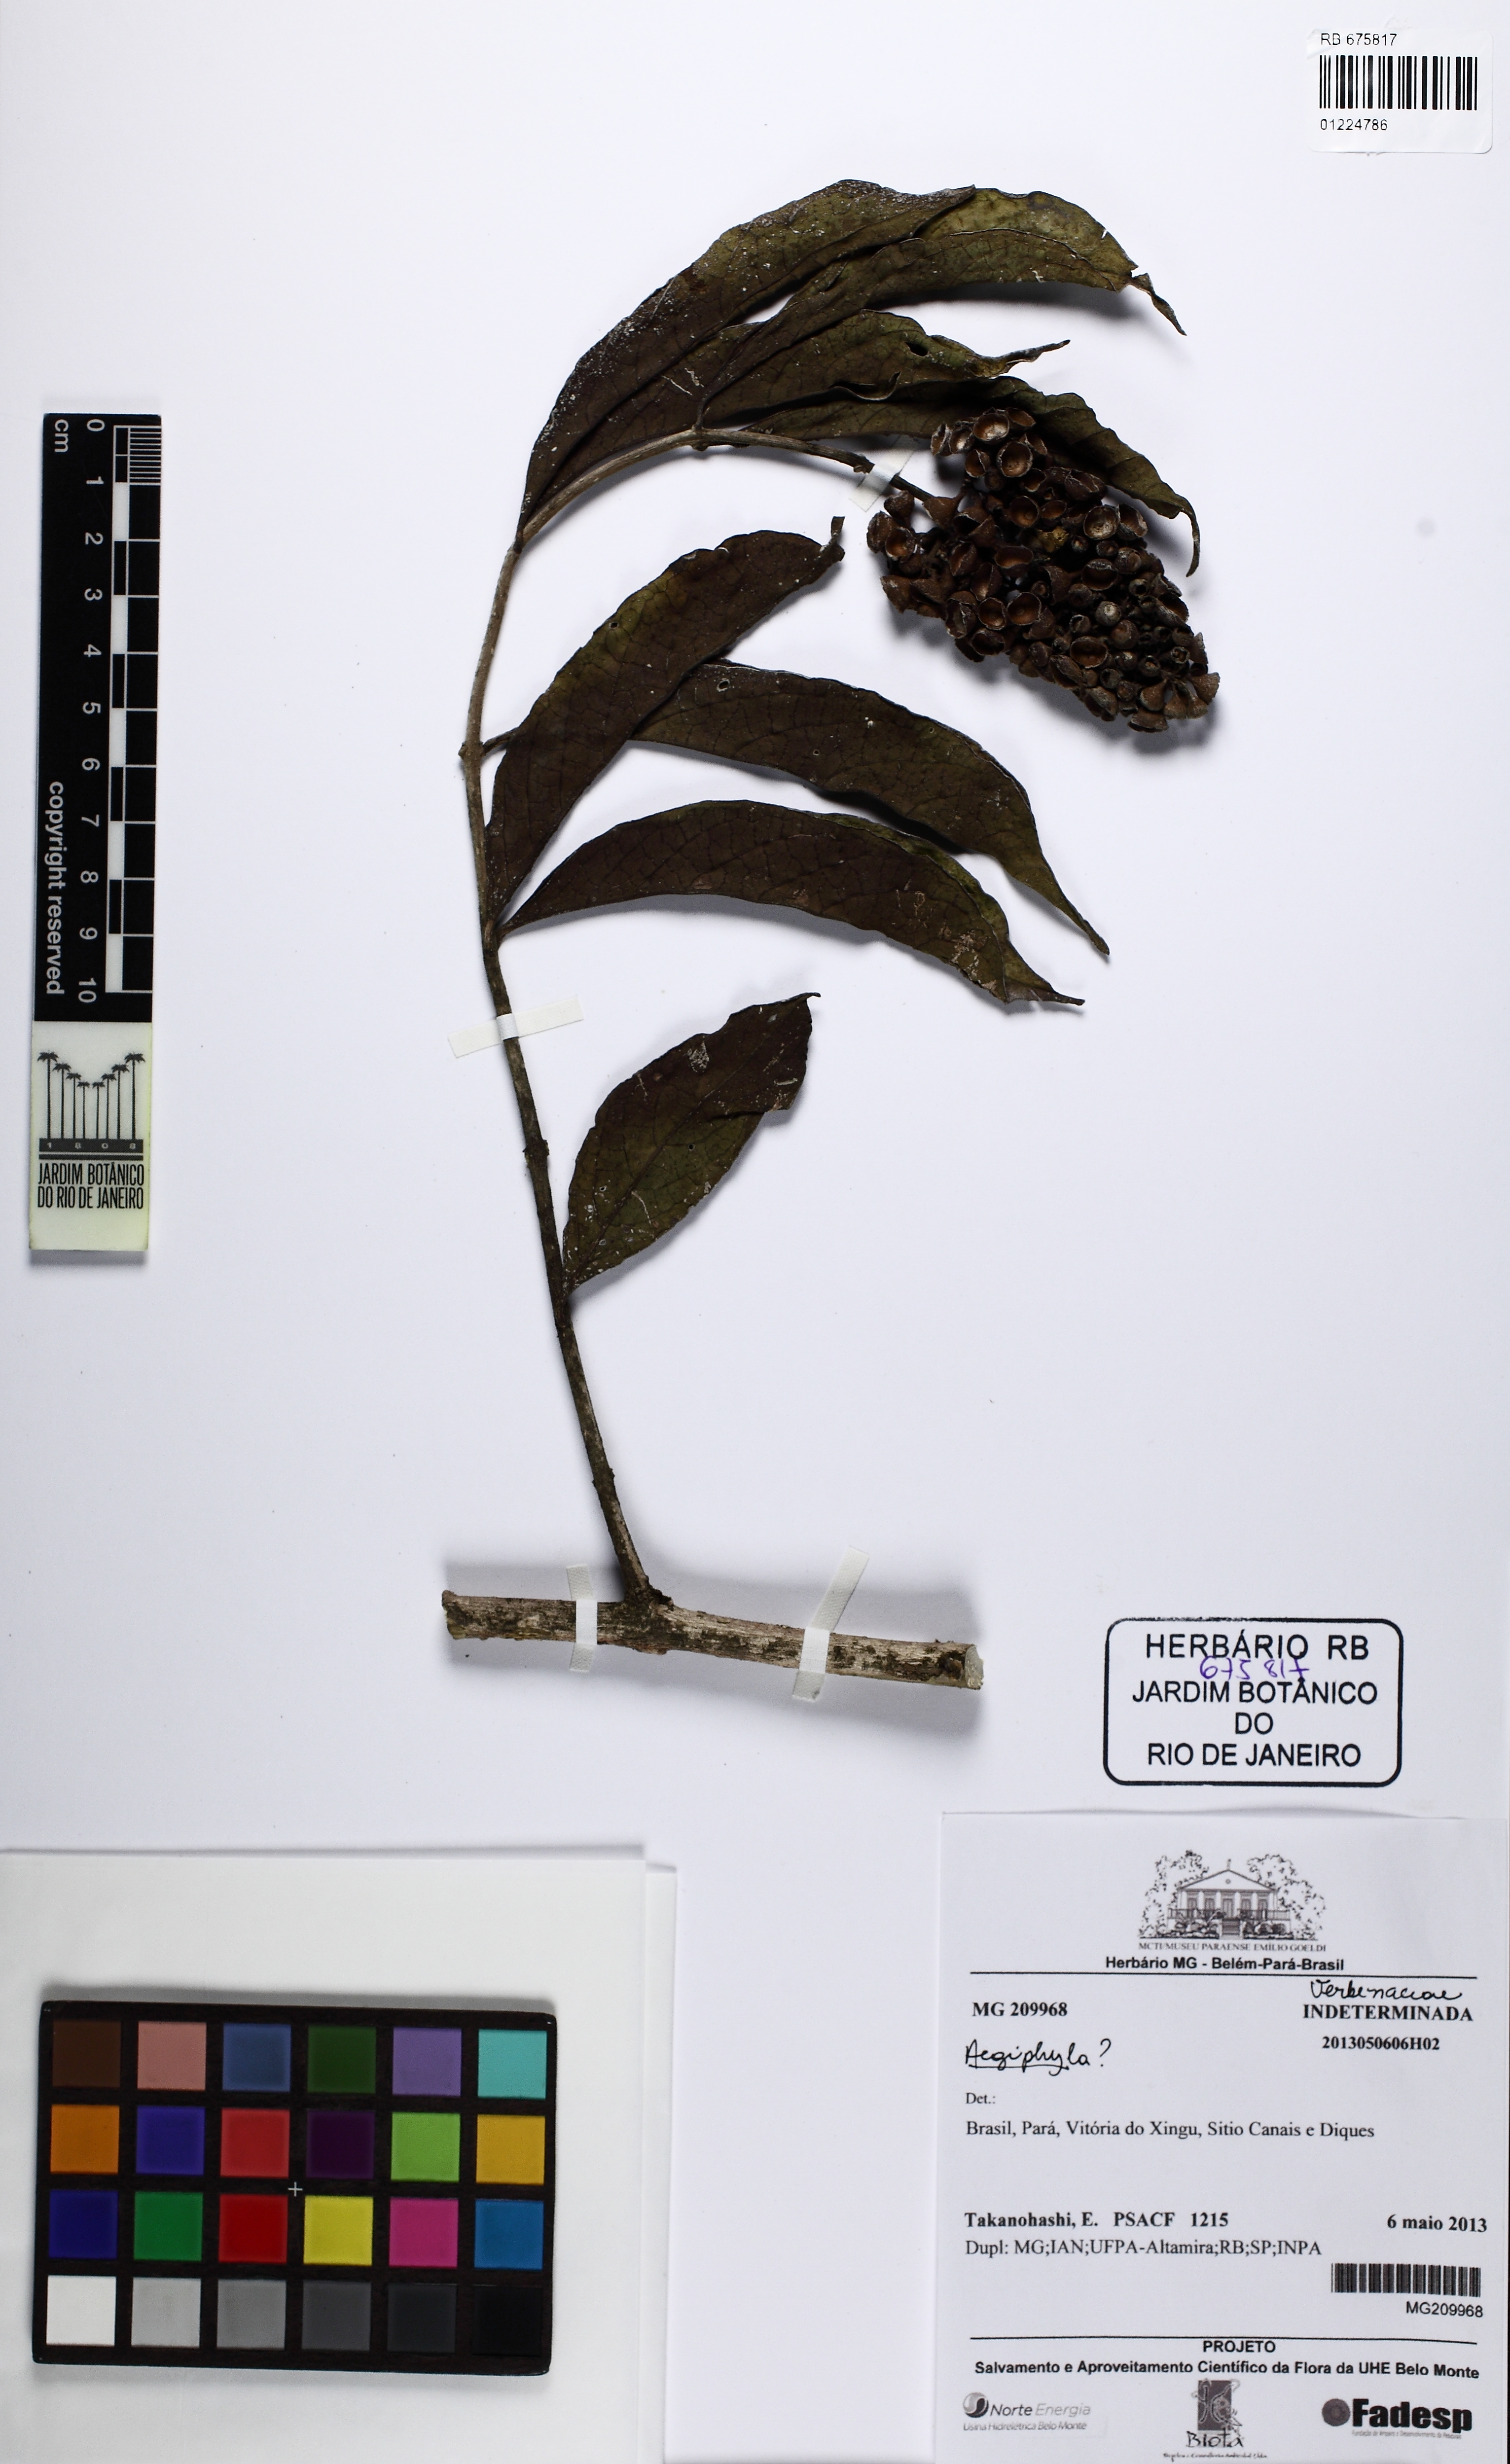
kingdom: Plantae
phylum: Tracheophyta
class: Magnoliopsida
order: Lamiales
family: Lamiaceae
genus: Aegiphila
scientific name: Aegiphila
